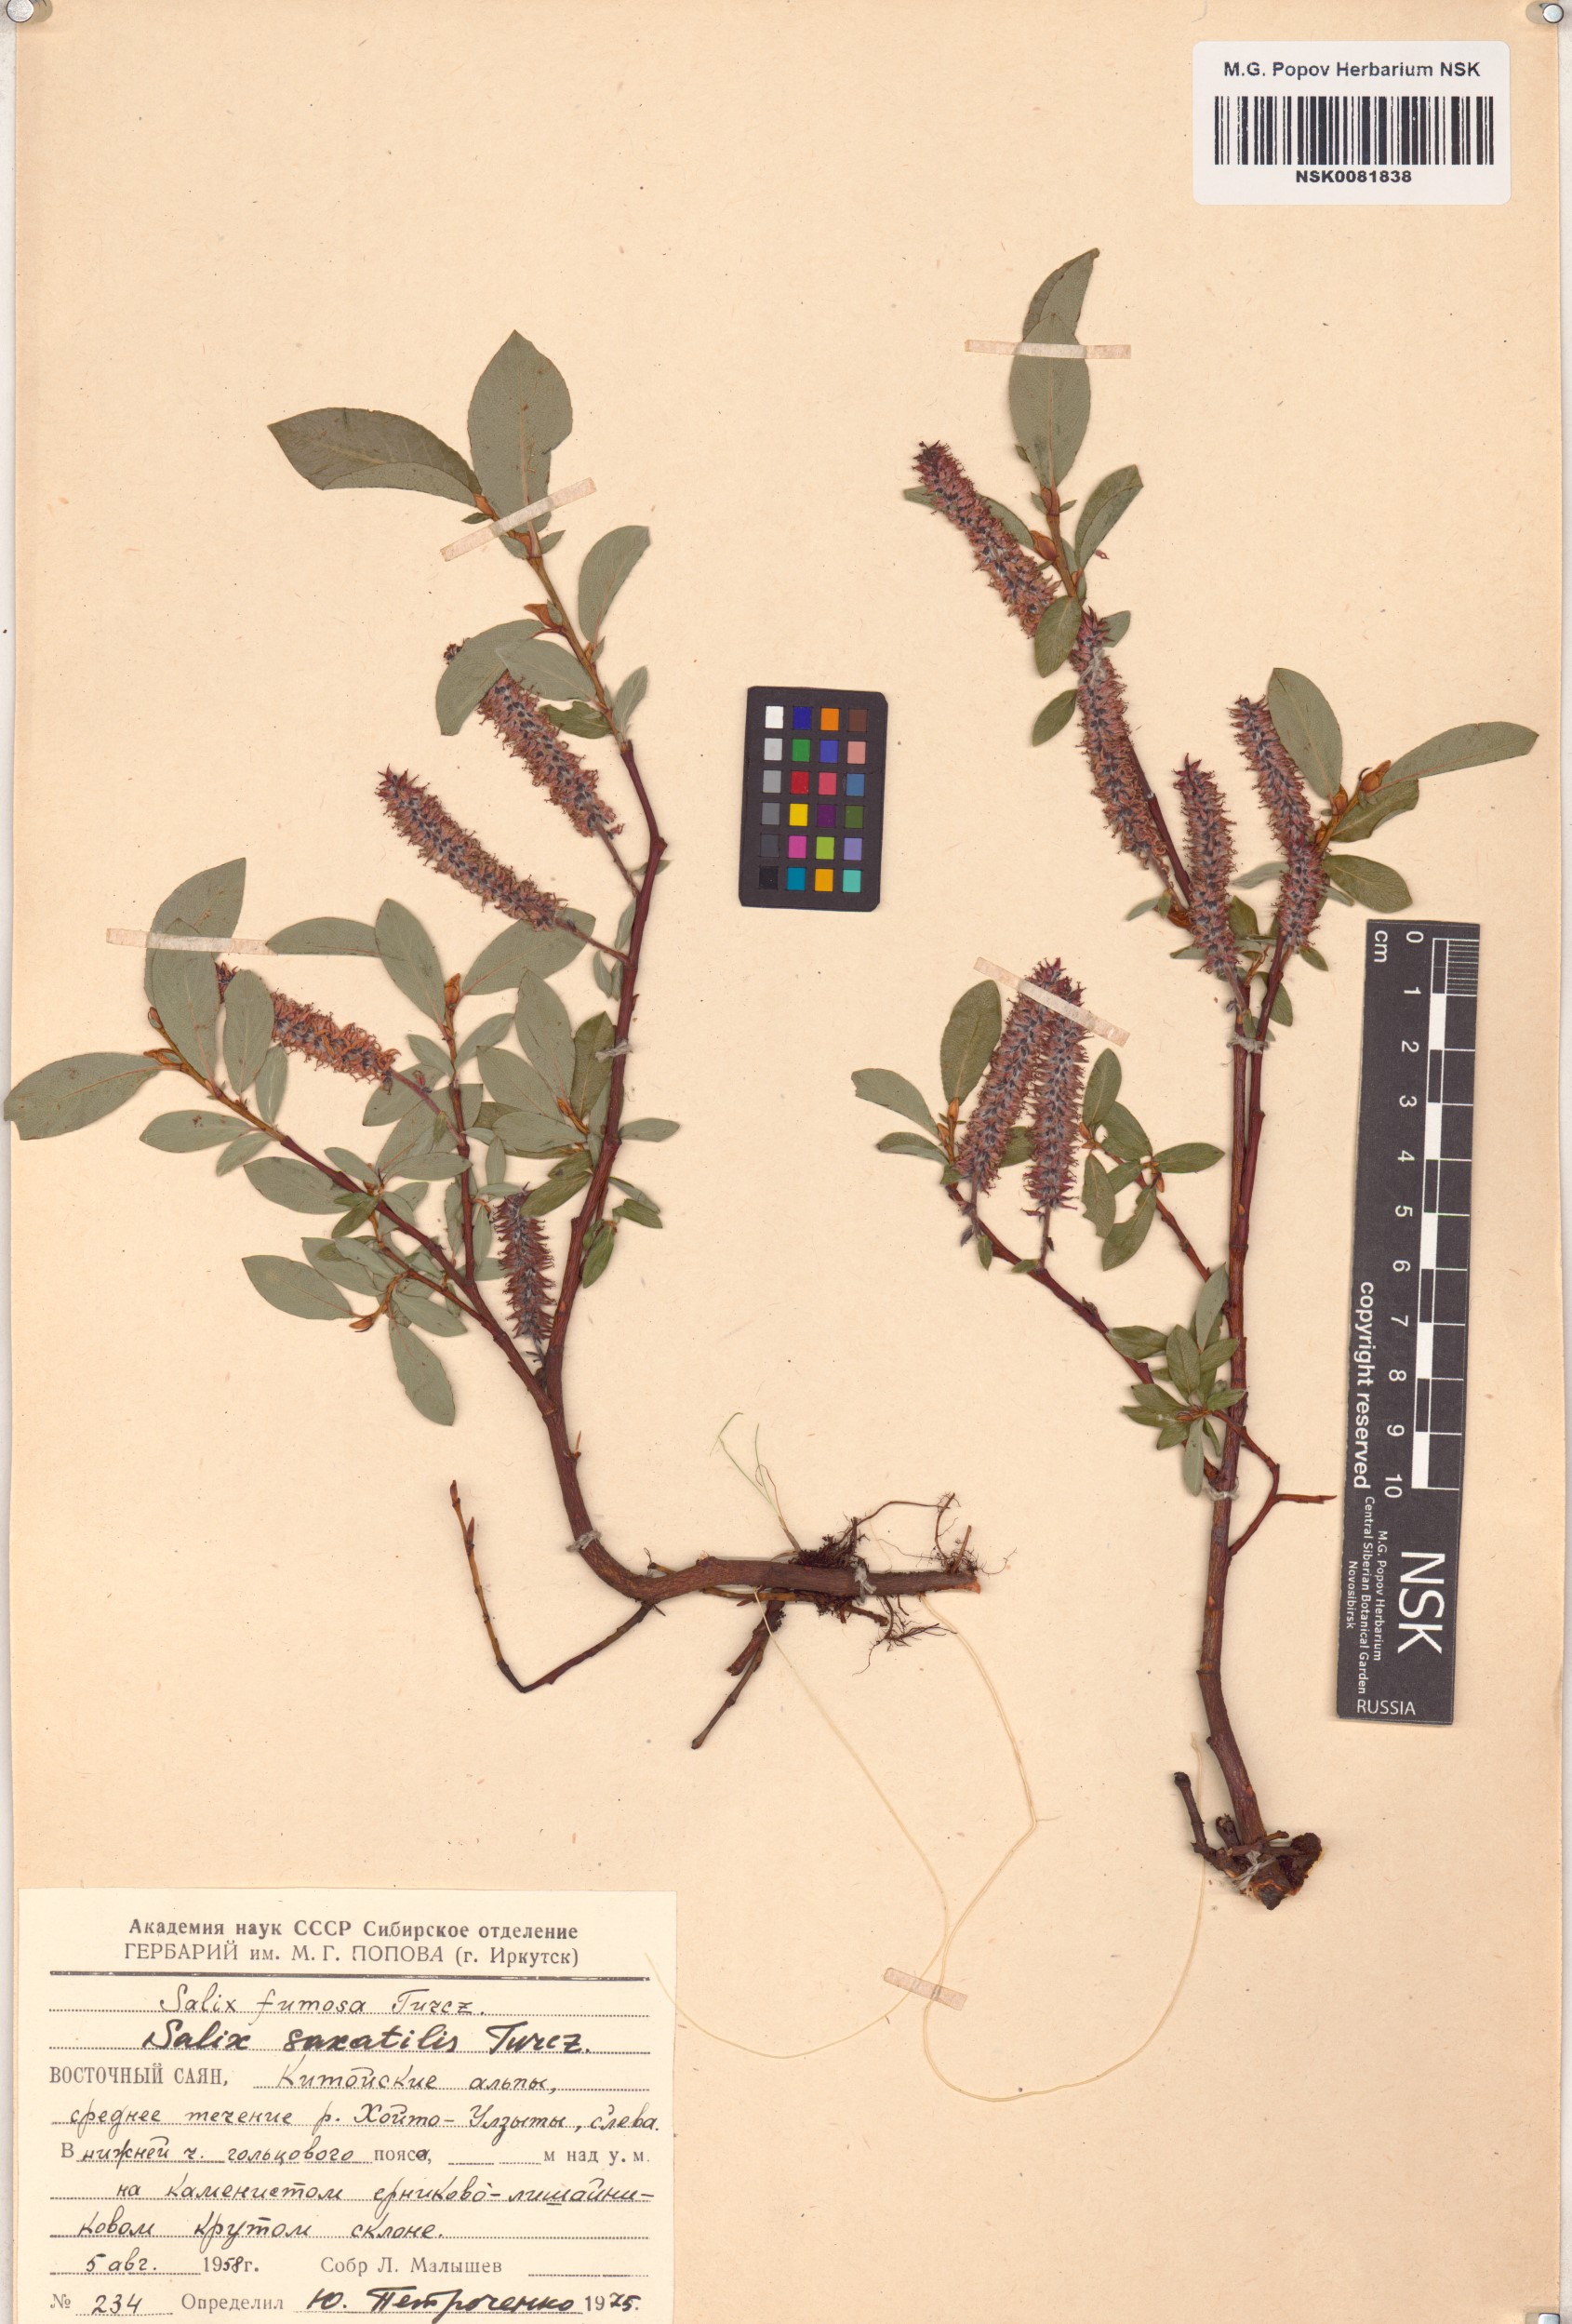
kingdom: Plantae
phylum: Tracheophyta
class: Magnoliopsida
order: Malpighiales
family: Salicaceae
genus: Salix
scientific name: Salix saxatilis
